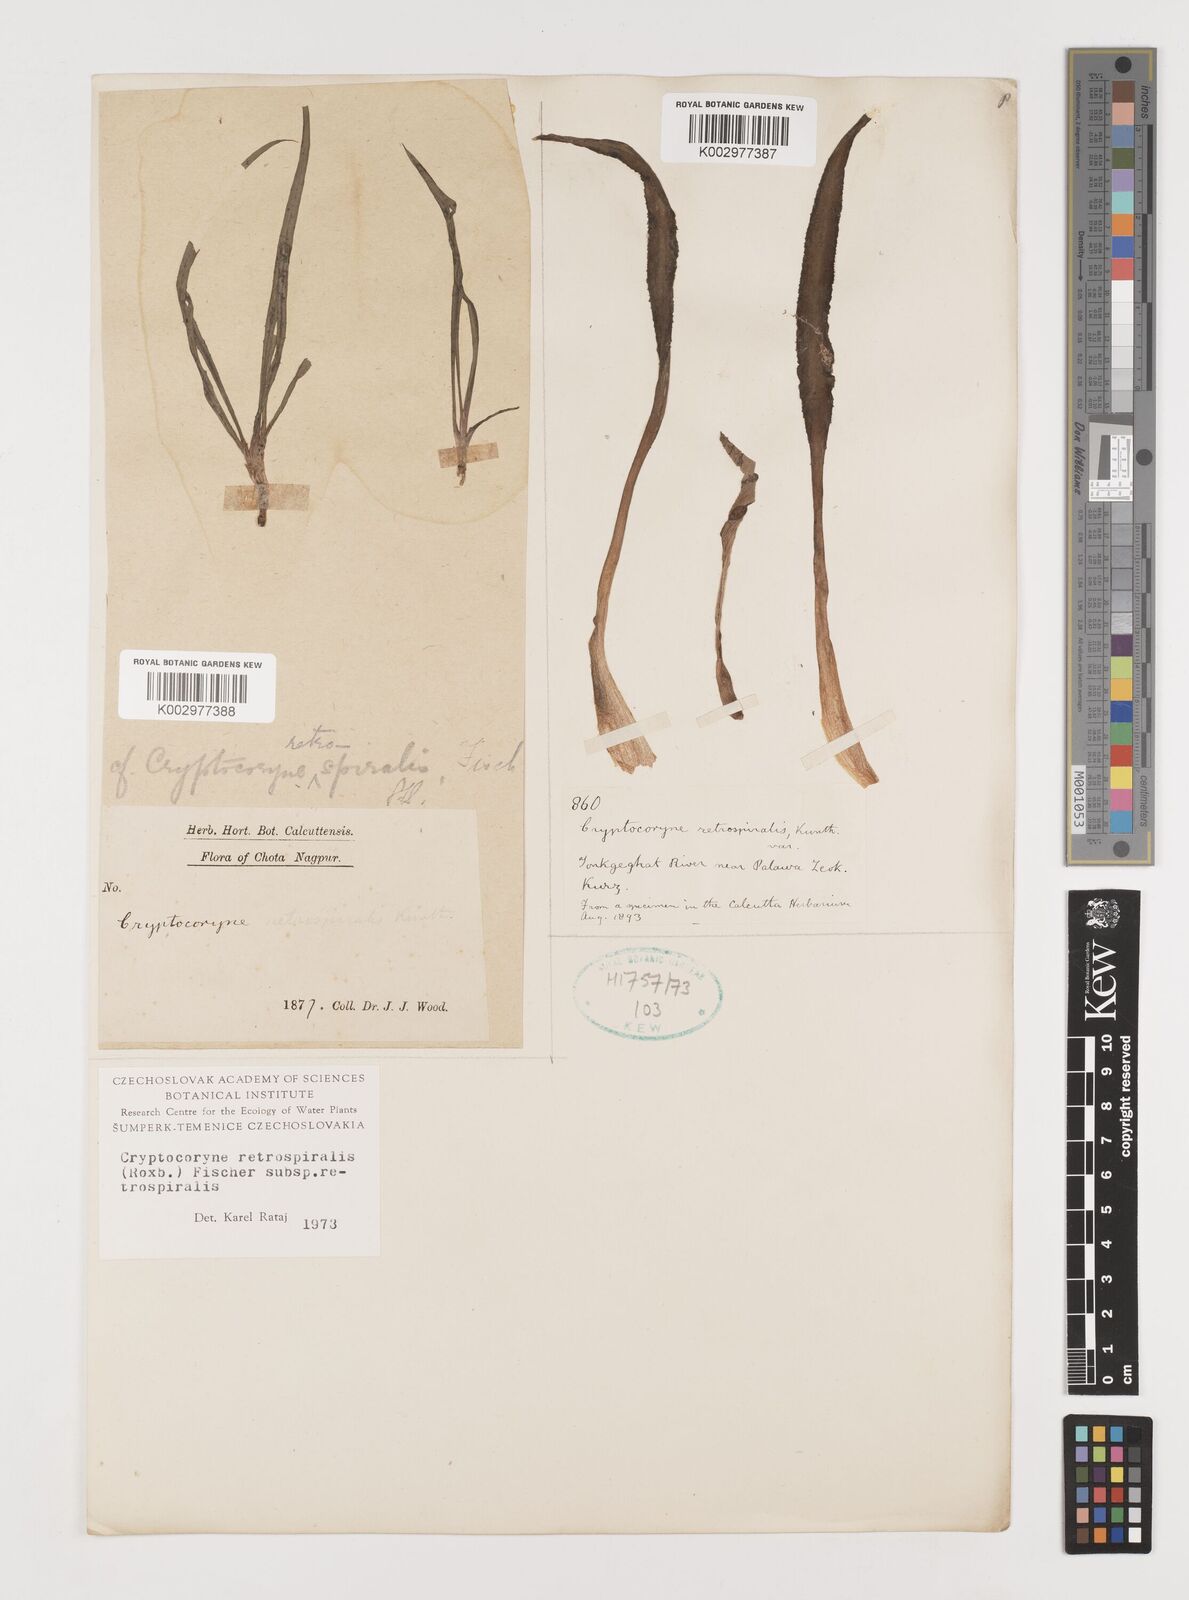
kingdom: Plantae
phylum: Tracheophyta
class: Liliopsida
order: Alismatales
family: Araceae
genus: Cryptocoryne
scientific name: Cryptocoryne retrospiralis
